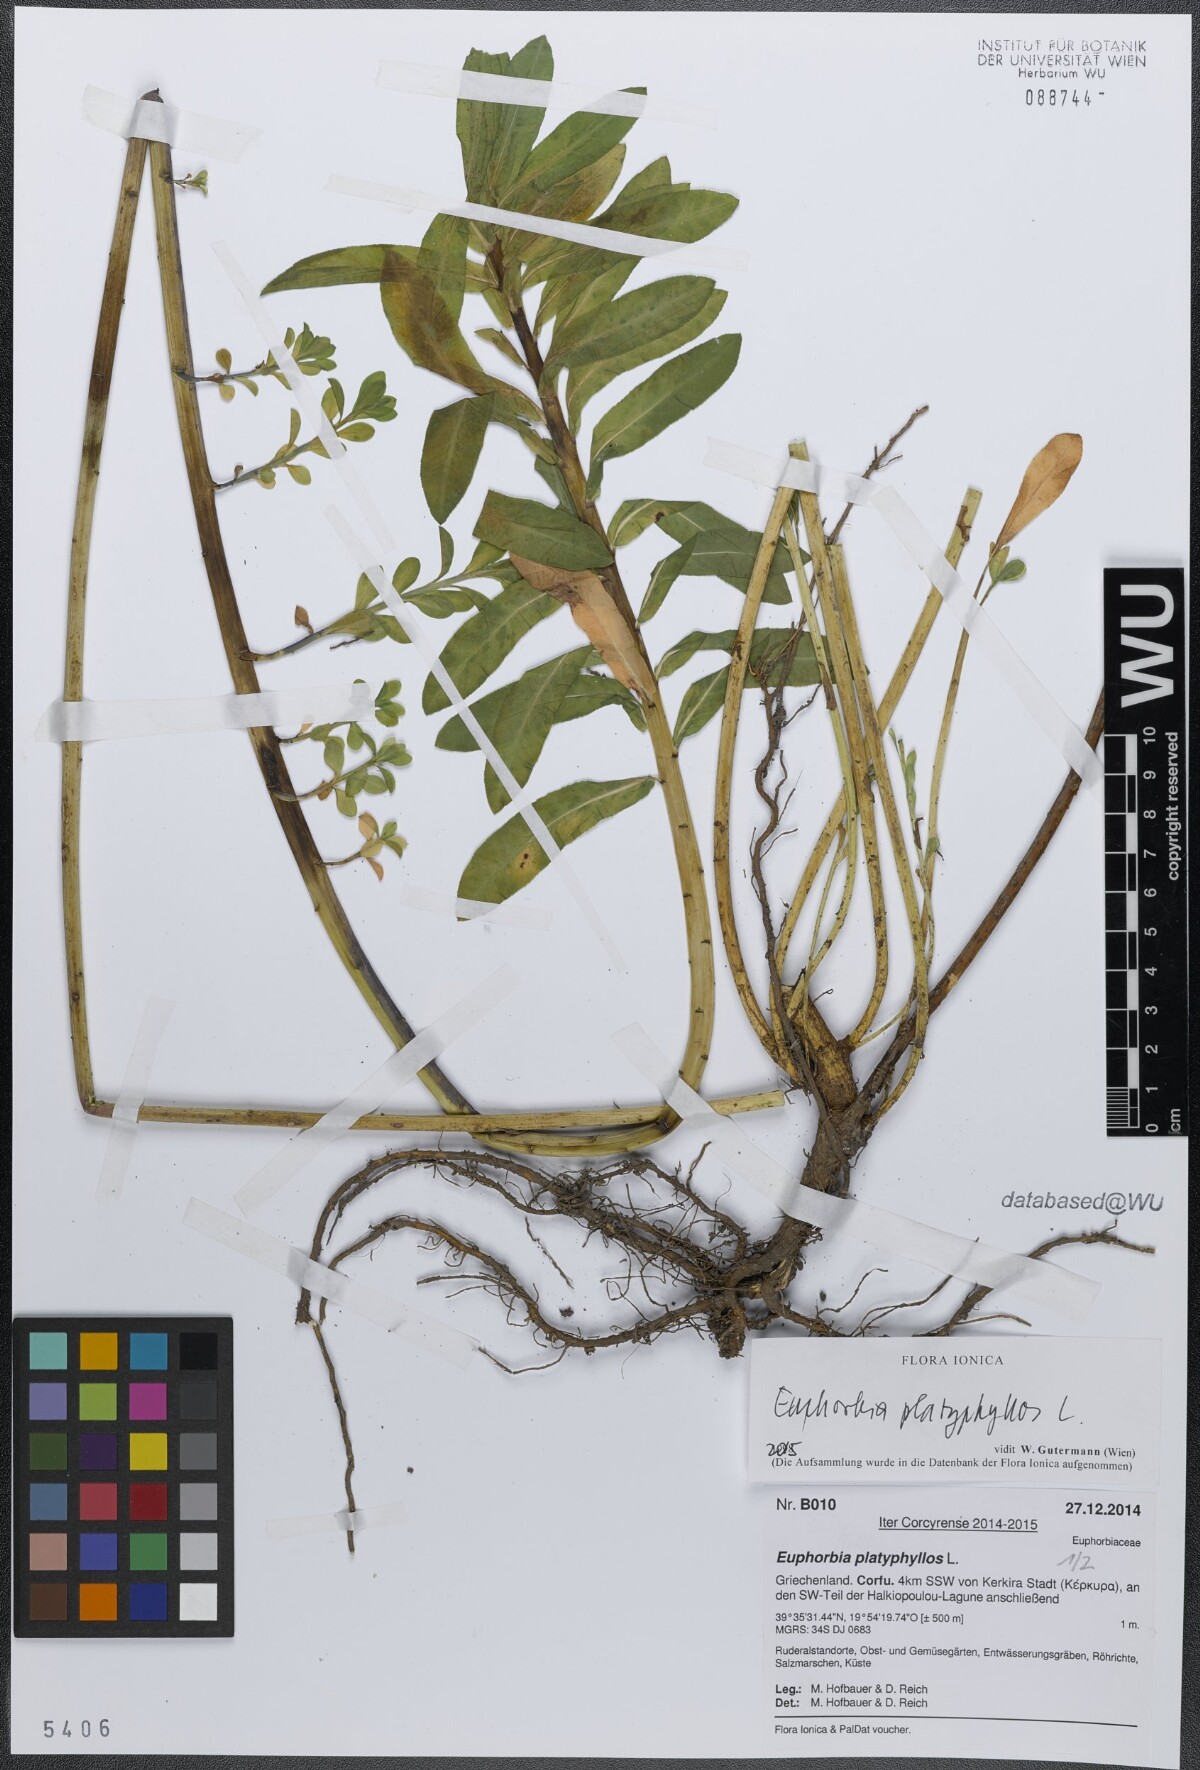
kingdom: Plantae
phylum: Tracheophyta
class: Magnoliopsida
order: Malpighiales
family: Euphorbiaceae
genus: Euphorbia
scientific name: Euphorbia platyphyllos
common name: Broad-leaved spurge
